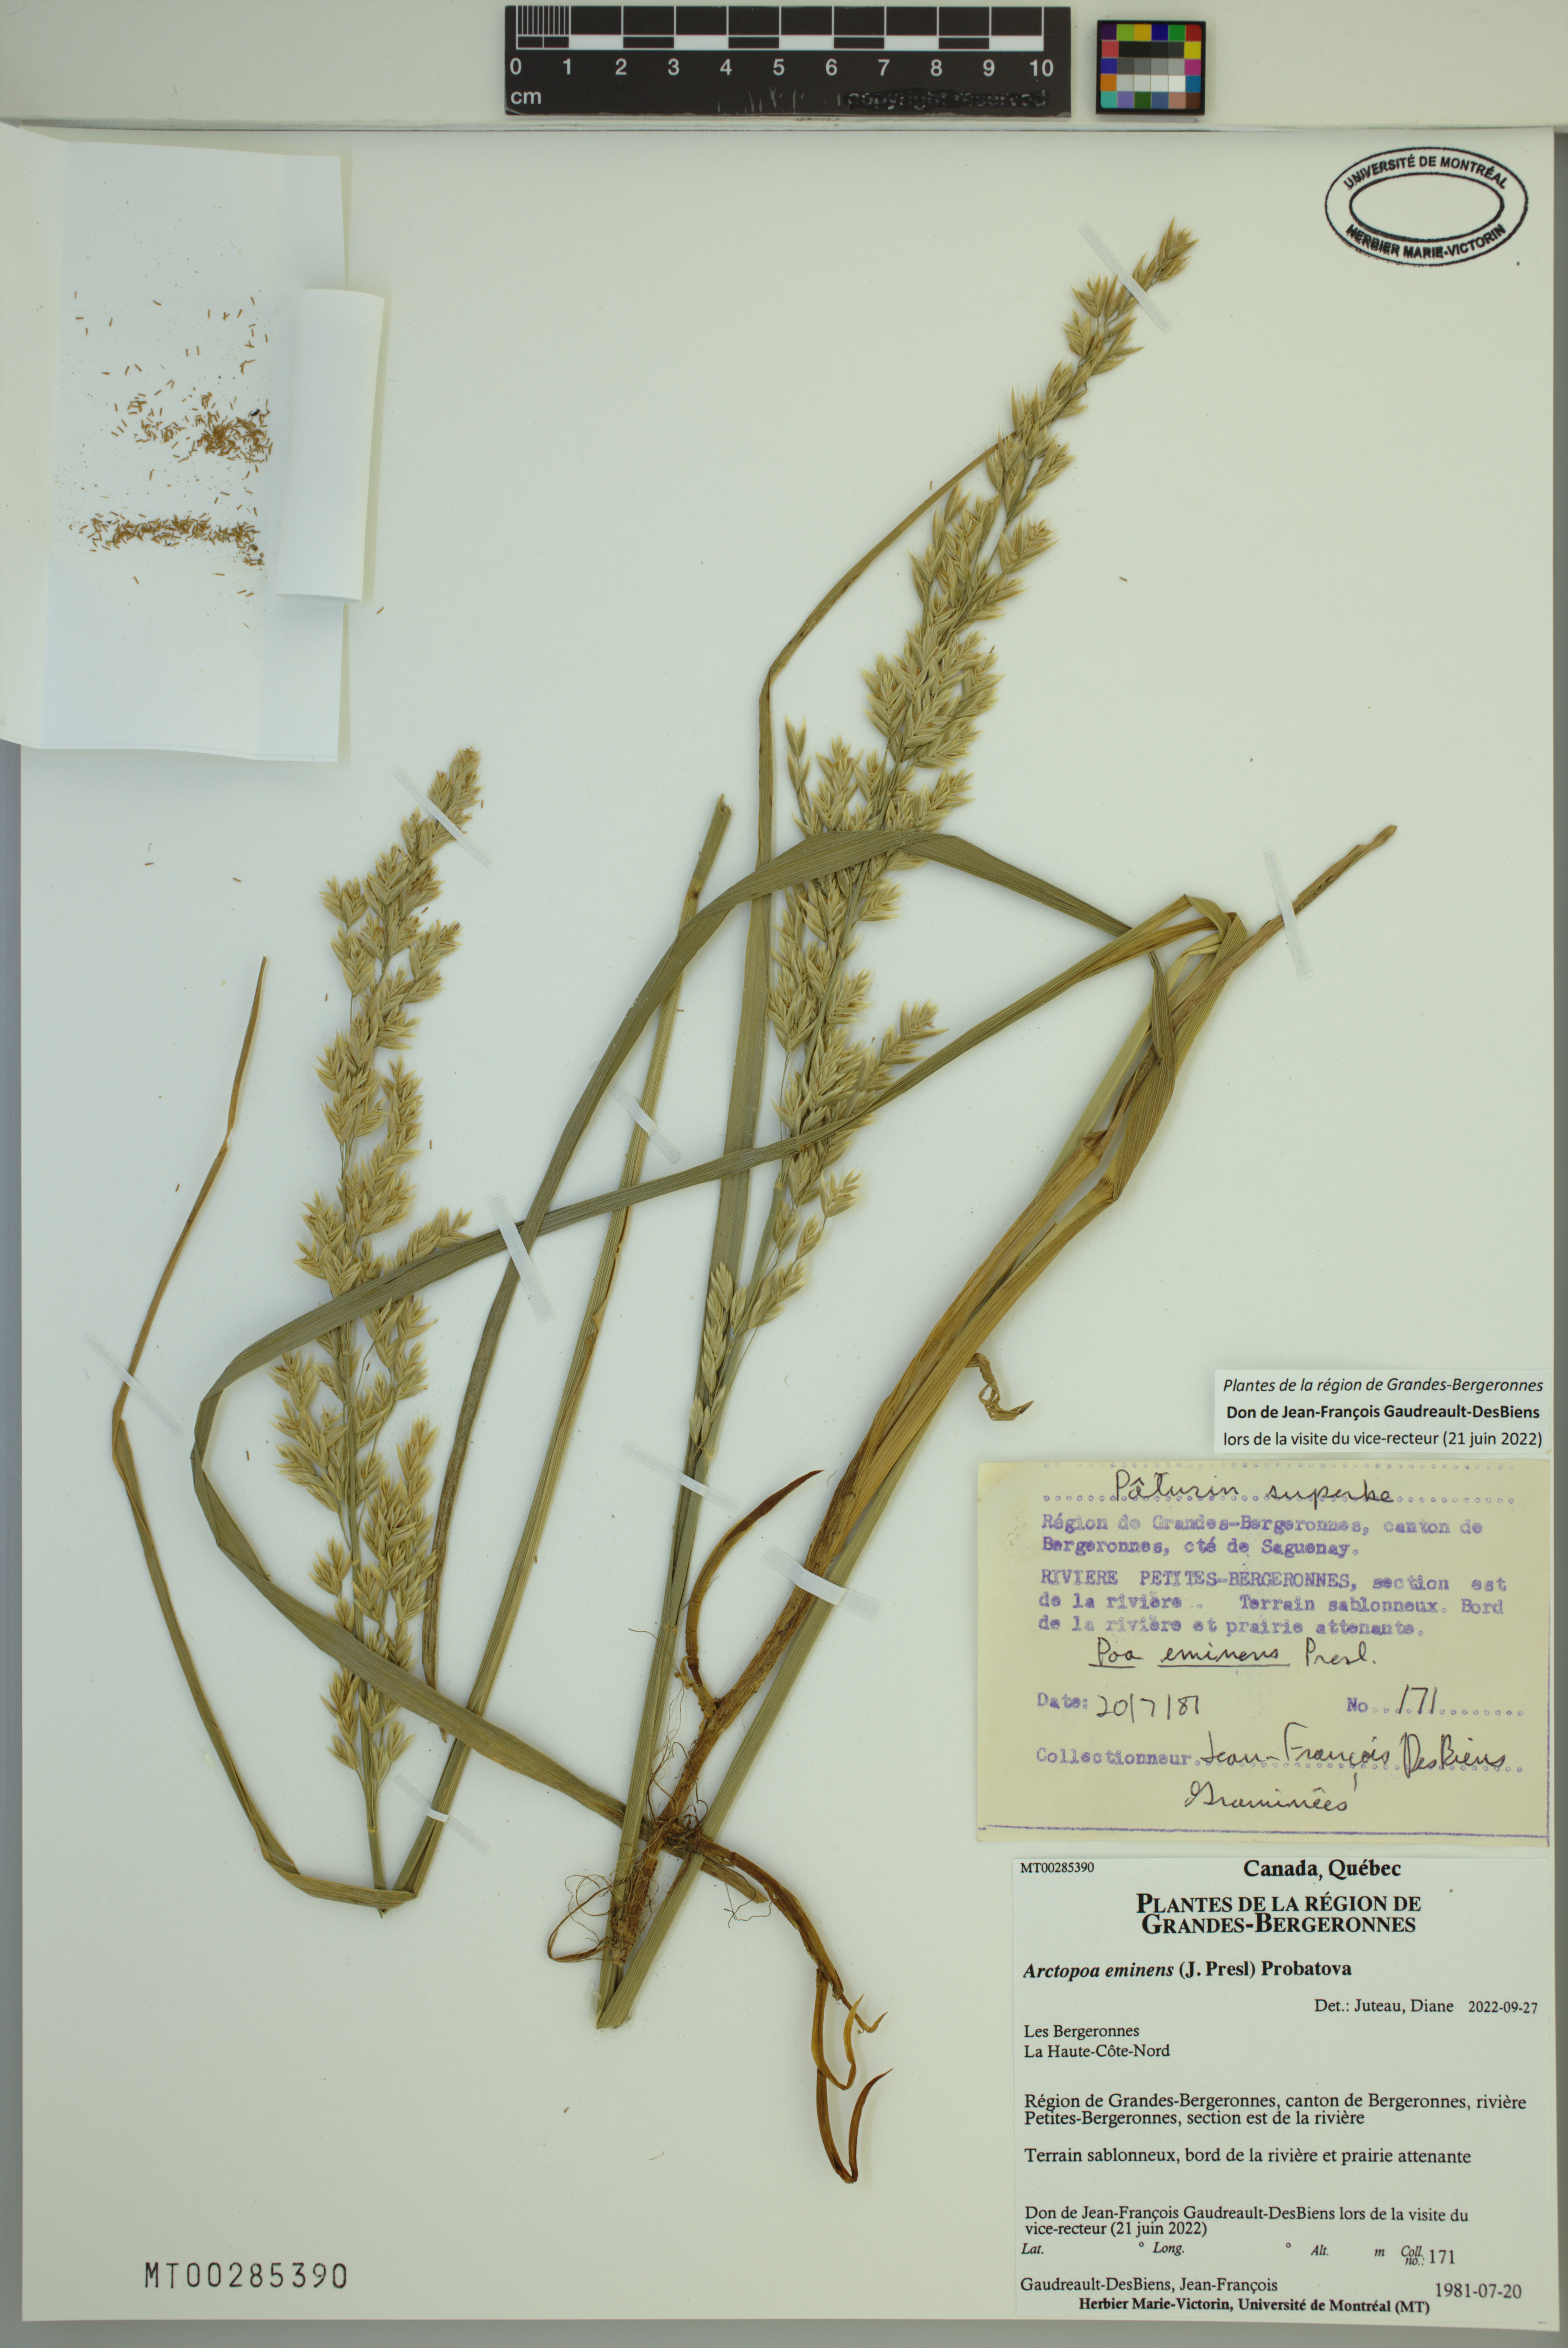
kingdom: Plantae
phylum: Tracheophyta
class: Liliopsida
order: Poales
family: Poaceae
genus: Arctopoa
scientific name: Arctopoa eminens
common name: Eminent bluegrass
